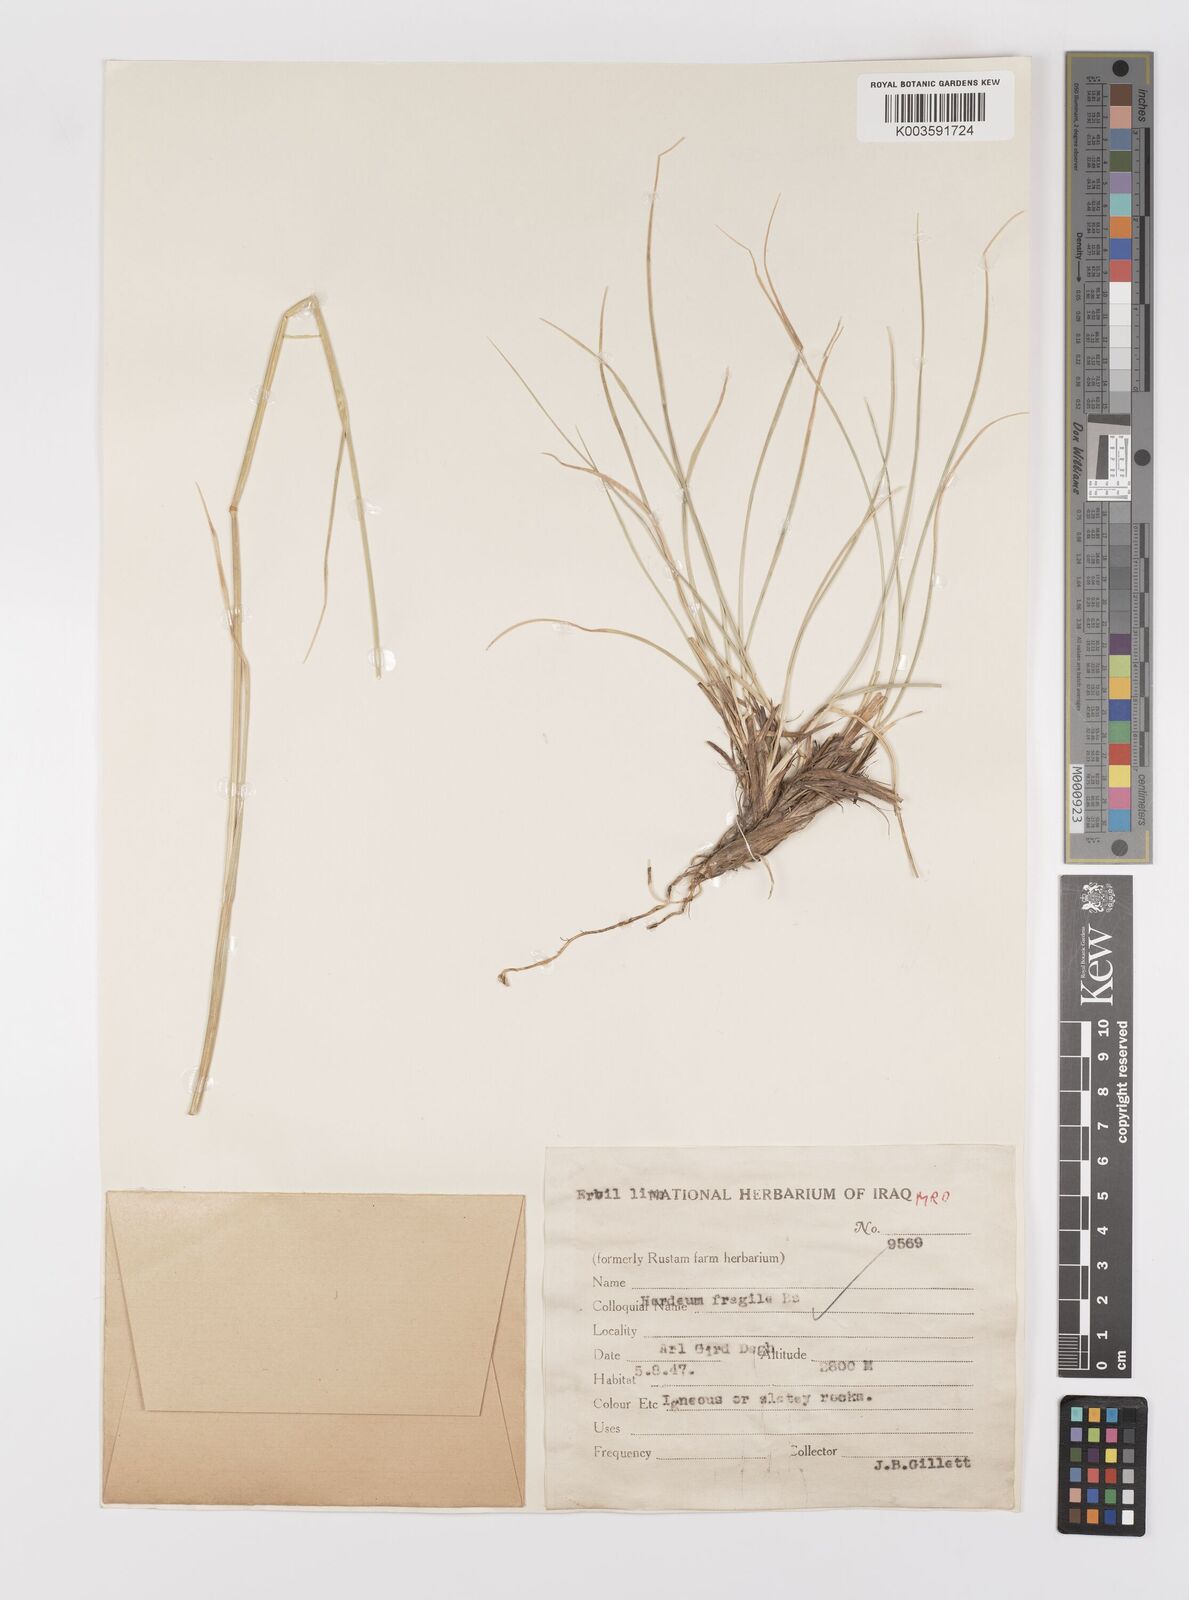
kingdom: Plantae
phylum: Tracheophyta
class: Liliopsida
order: Poales
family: Poaceae
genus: Psathyrostachys
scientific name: Psathyrostachys fragilis
